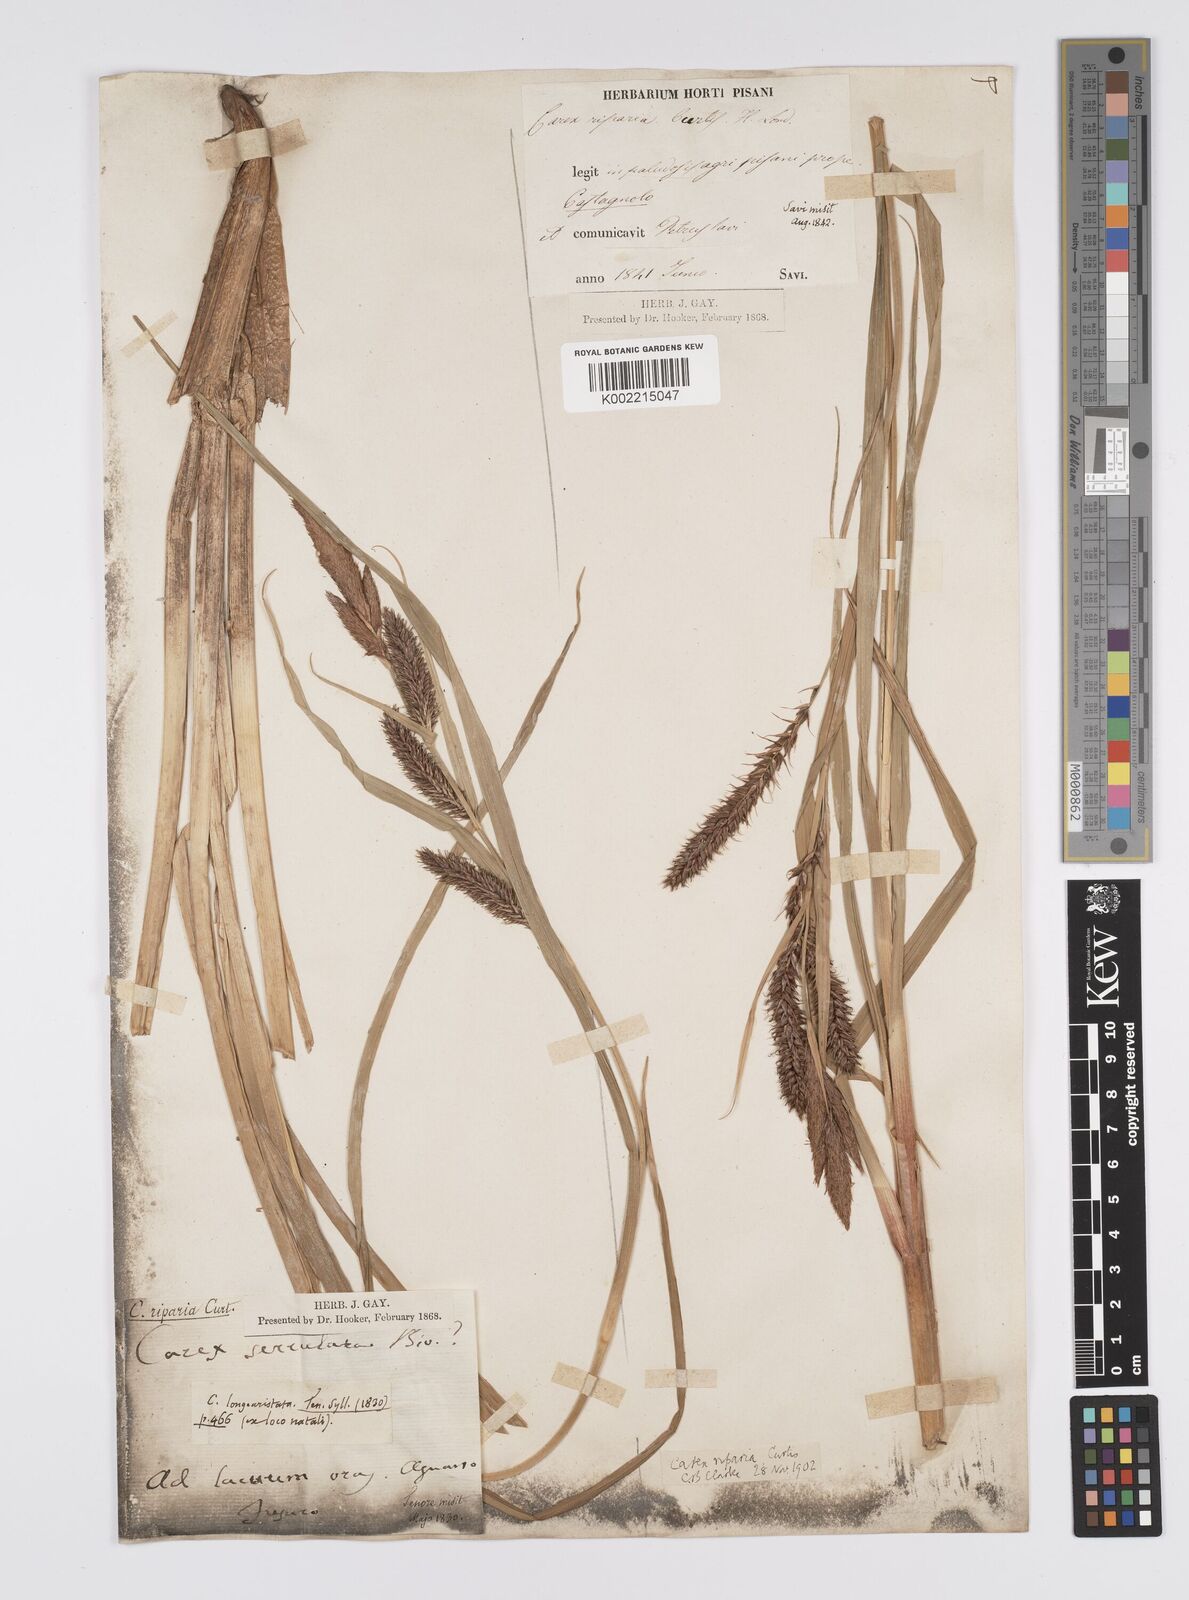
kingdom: Plantae
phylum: Tracheophyta
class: Liliopsida
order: Poales
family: Cyperaceae
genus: Carex
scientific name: Carex riparia
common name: Greater pond-sedge
